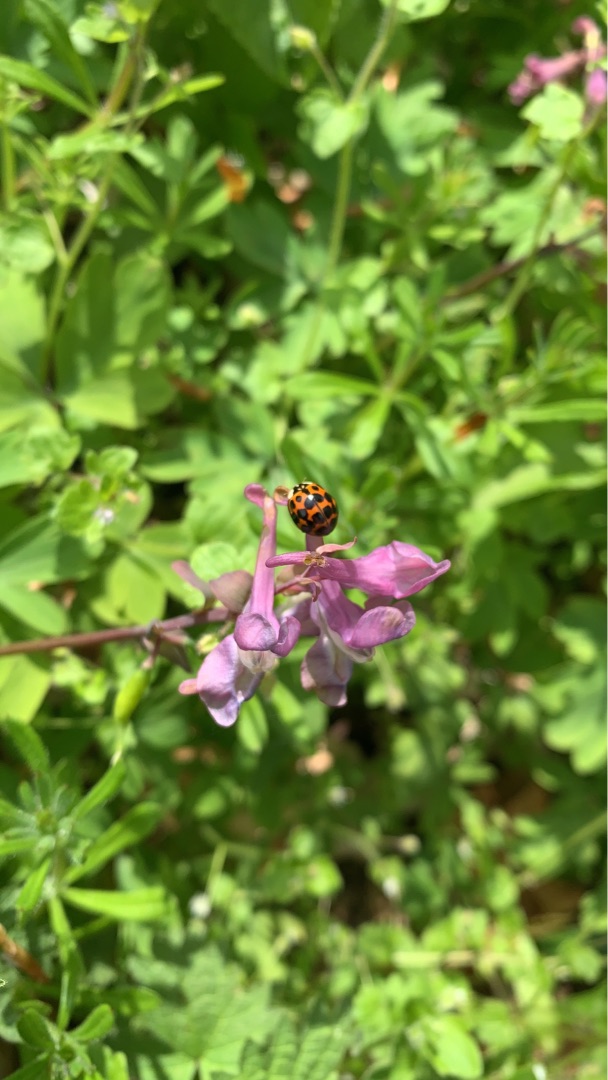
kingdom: Animalia
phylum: Arthropoda
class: Insecta
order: Coleoptera
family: Coccinellidae
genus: Harmonia
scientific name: Harmonia axyridis
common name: Harlekinmariehøne
